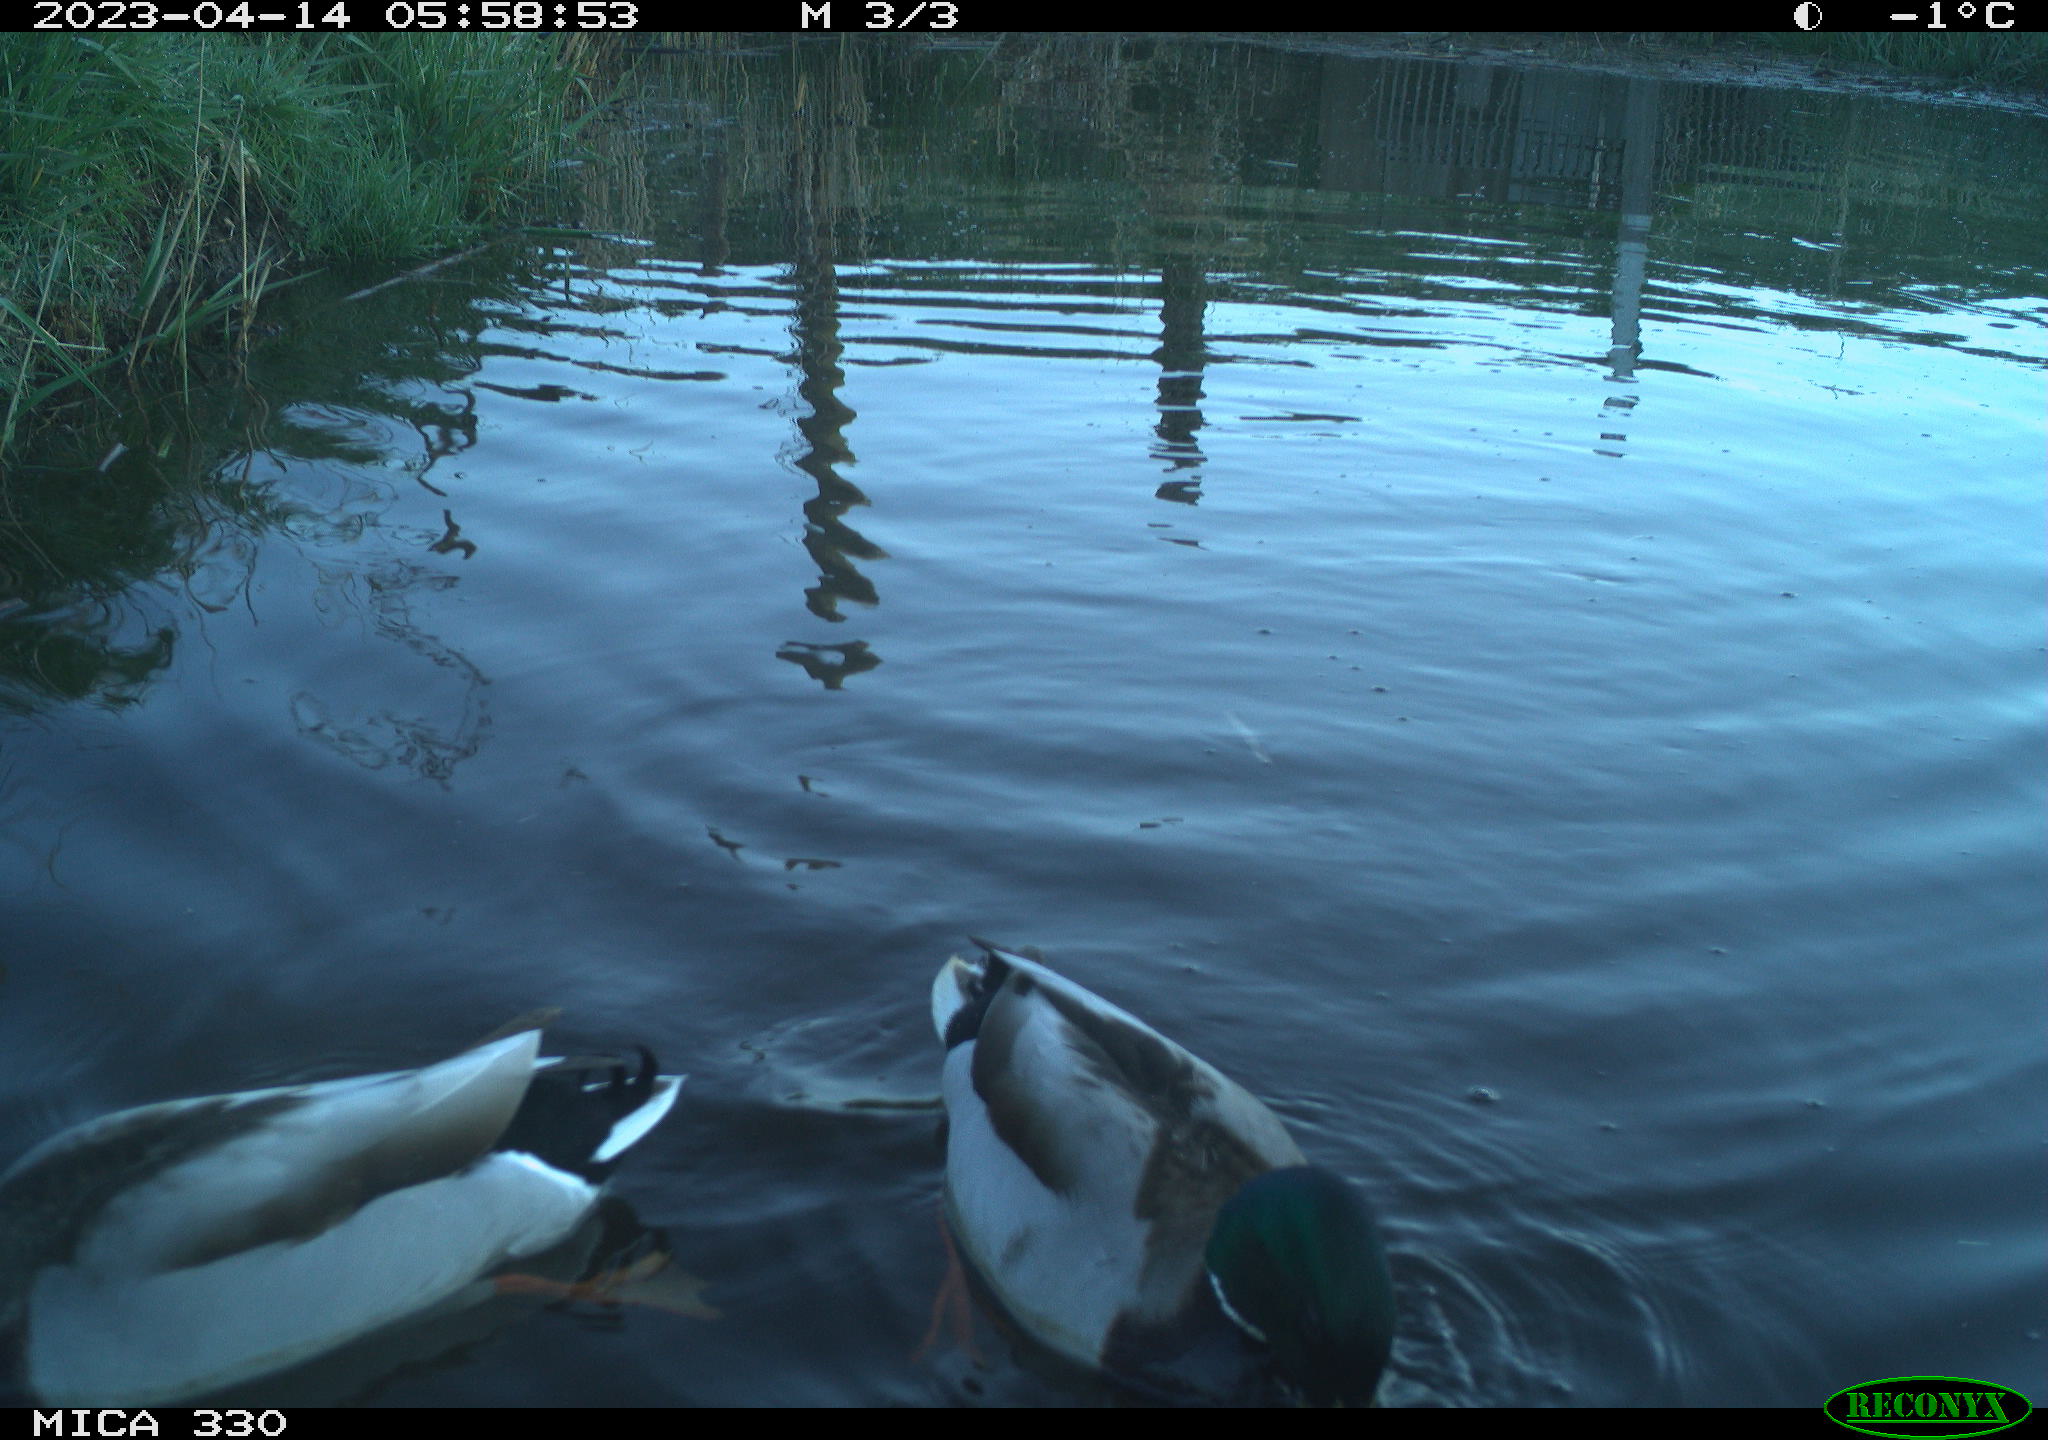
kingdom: Animalia
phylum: Chordata
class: Aves
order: Anseriformes
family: Anatidae
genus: Anas
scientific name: Anas
